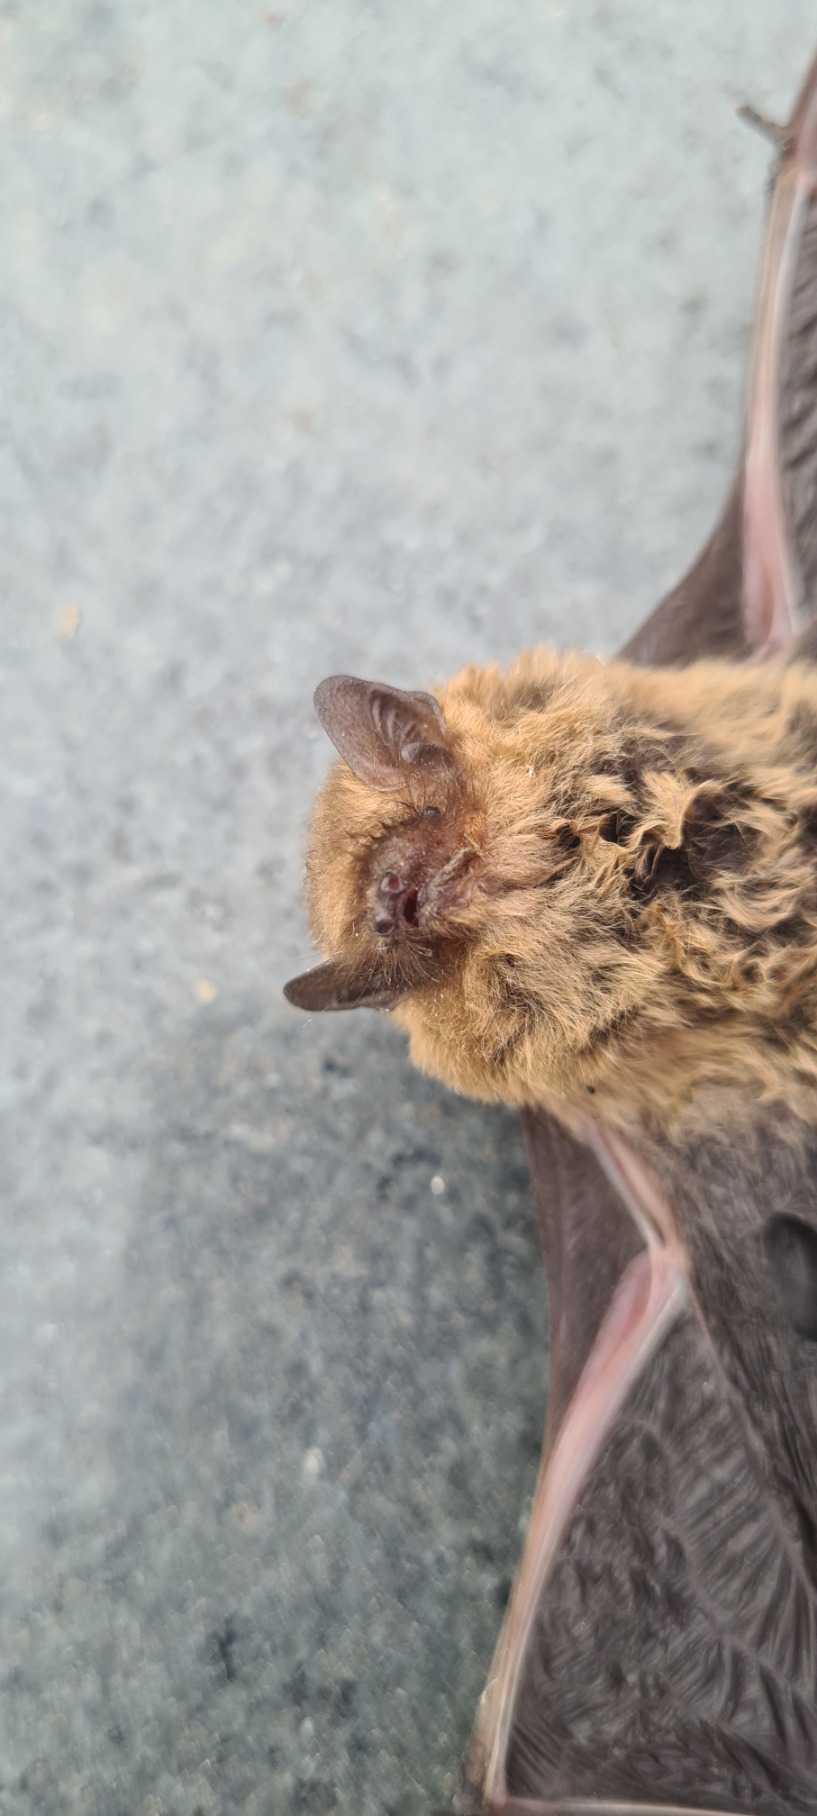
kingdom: Animalia
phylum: Chordata
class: Mammalia
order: Chiroptera
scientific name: Chiroptera
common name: Flagermus
